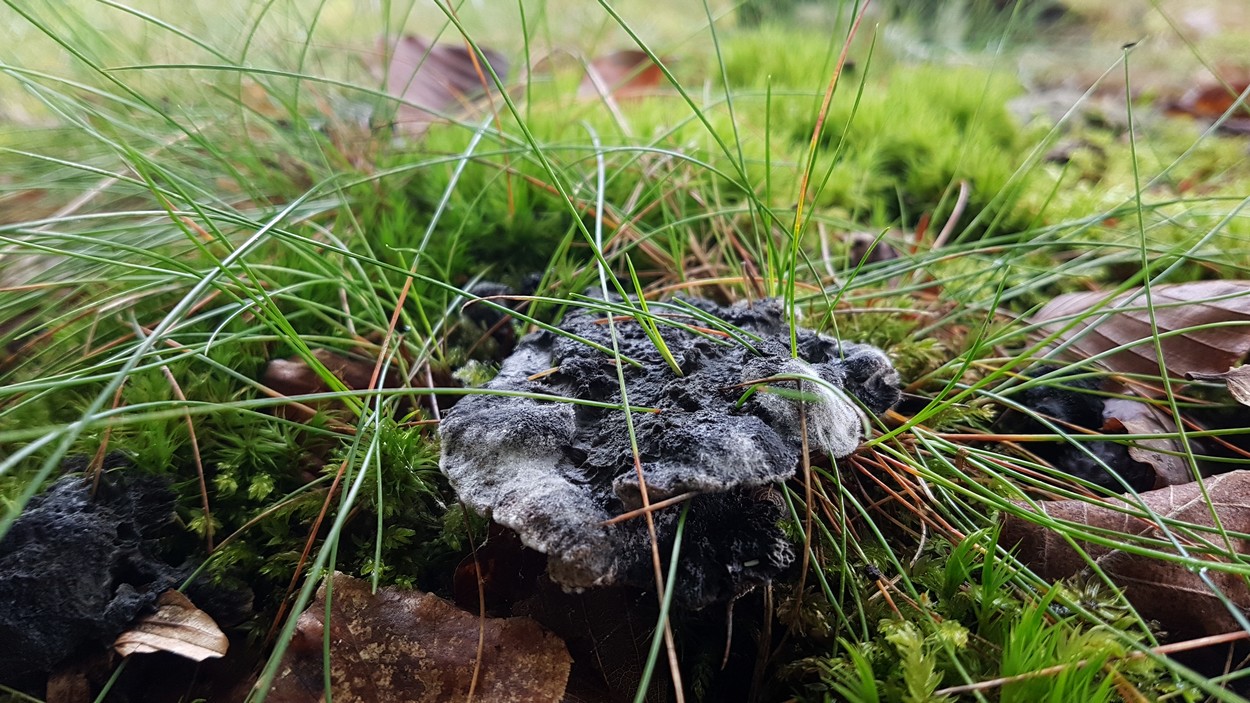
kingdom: Fungi
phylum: Basidiomycota
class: Agaricomycetes
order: Thelephorales
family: Thelephoraceae
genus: Phellodon
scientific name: Phellodon
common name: mørk duftpigsvamp
